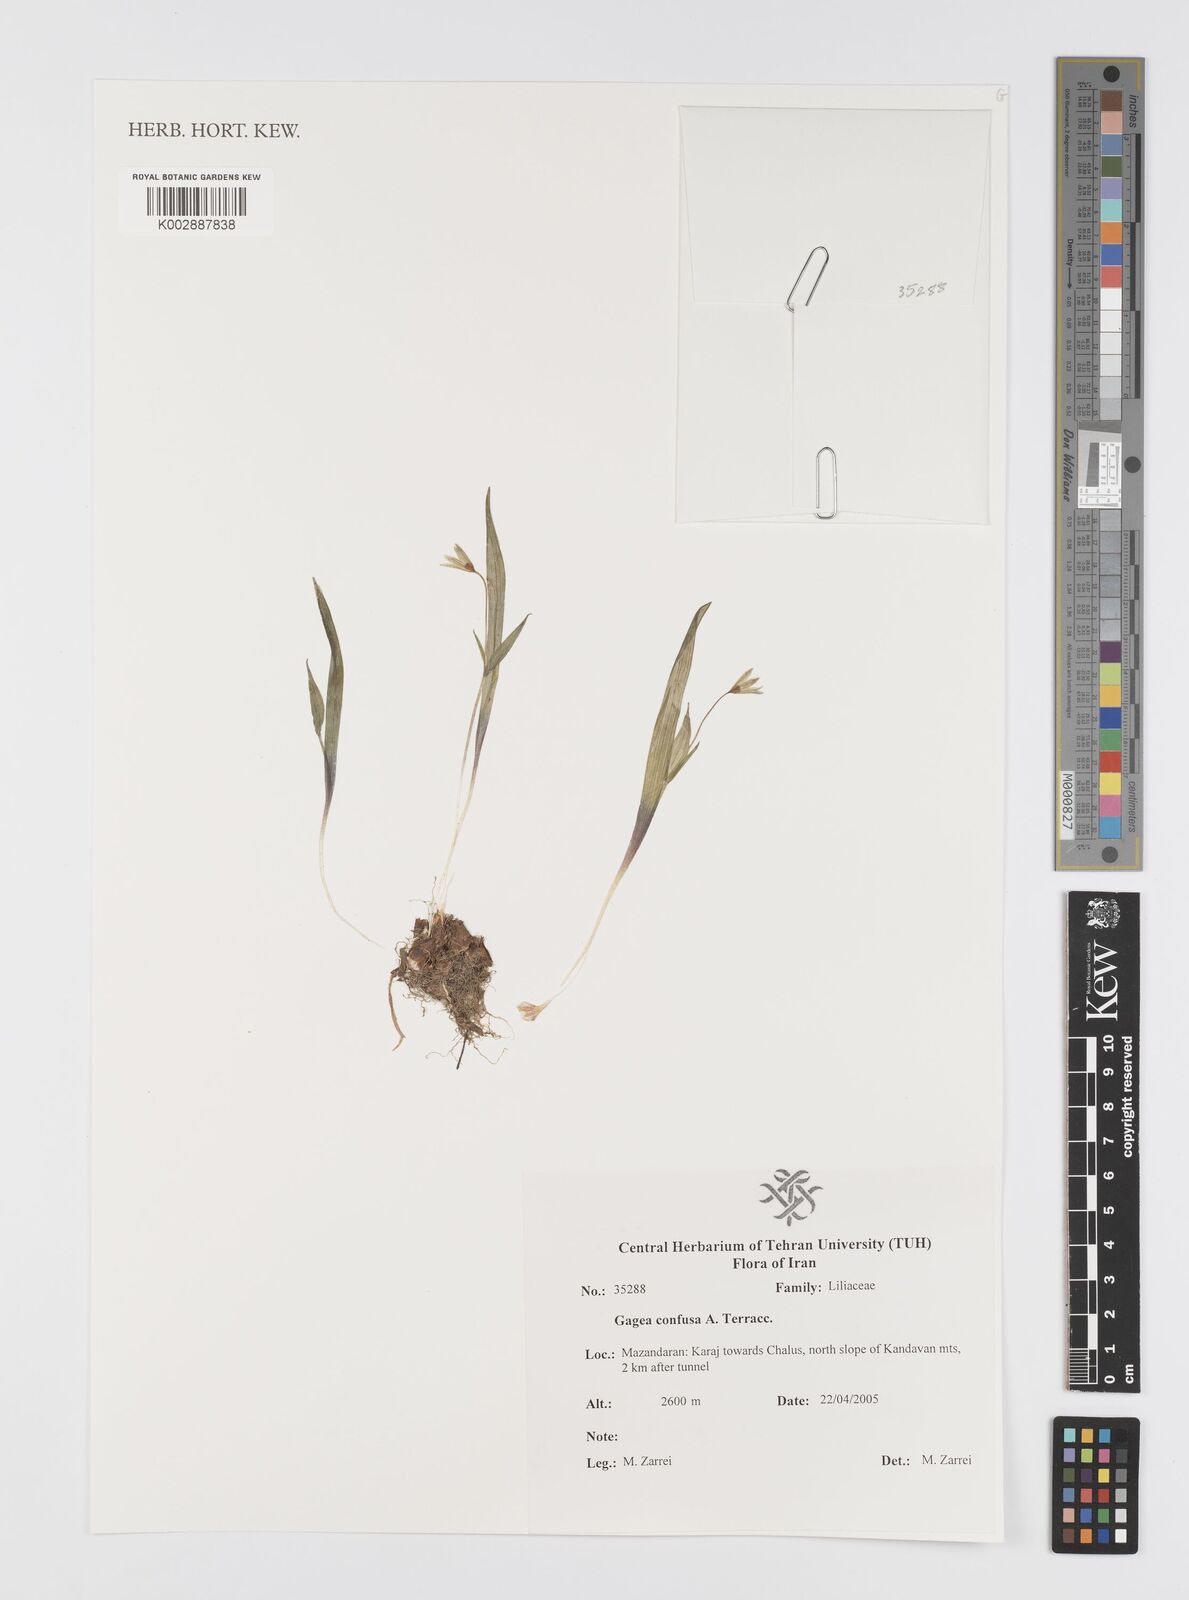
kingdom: Plantae
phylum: Tracheophyta
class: Liliopsida
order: Liliales
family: Liliaceae
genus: Gagea
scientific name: Gagea confusa
